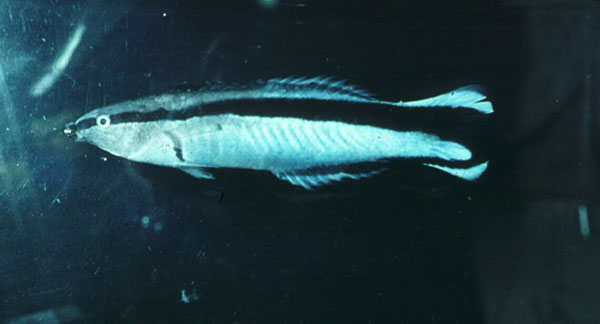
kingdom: Animalia
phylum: Chordata
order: Perciformes
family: Labridae
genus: Labroides
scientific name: Labroides dimidiatus
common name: Blue diesel wrasse
